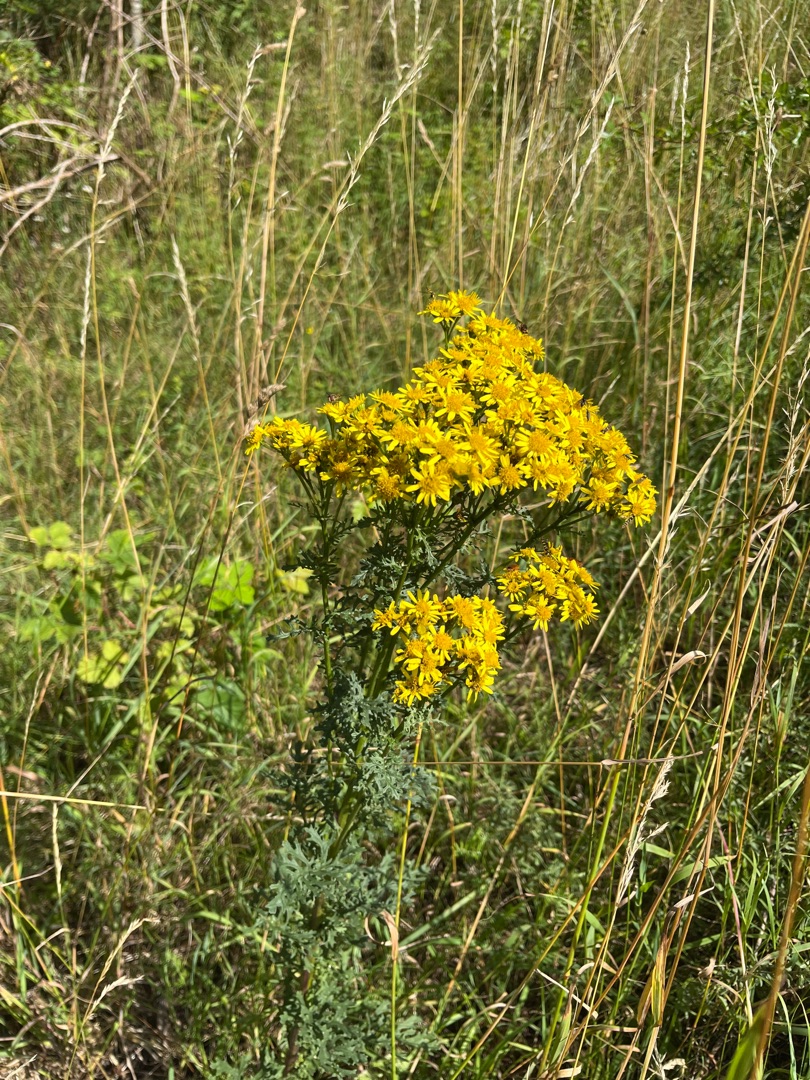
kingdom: Plantae
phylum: Tracheophyta
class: Magnoliopsida
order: Asterales
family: Asteraceae
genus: Jacobaea
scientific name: Jacobaea vulgaris
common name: Eng-brandbæger
